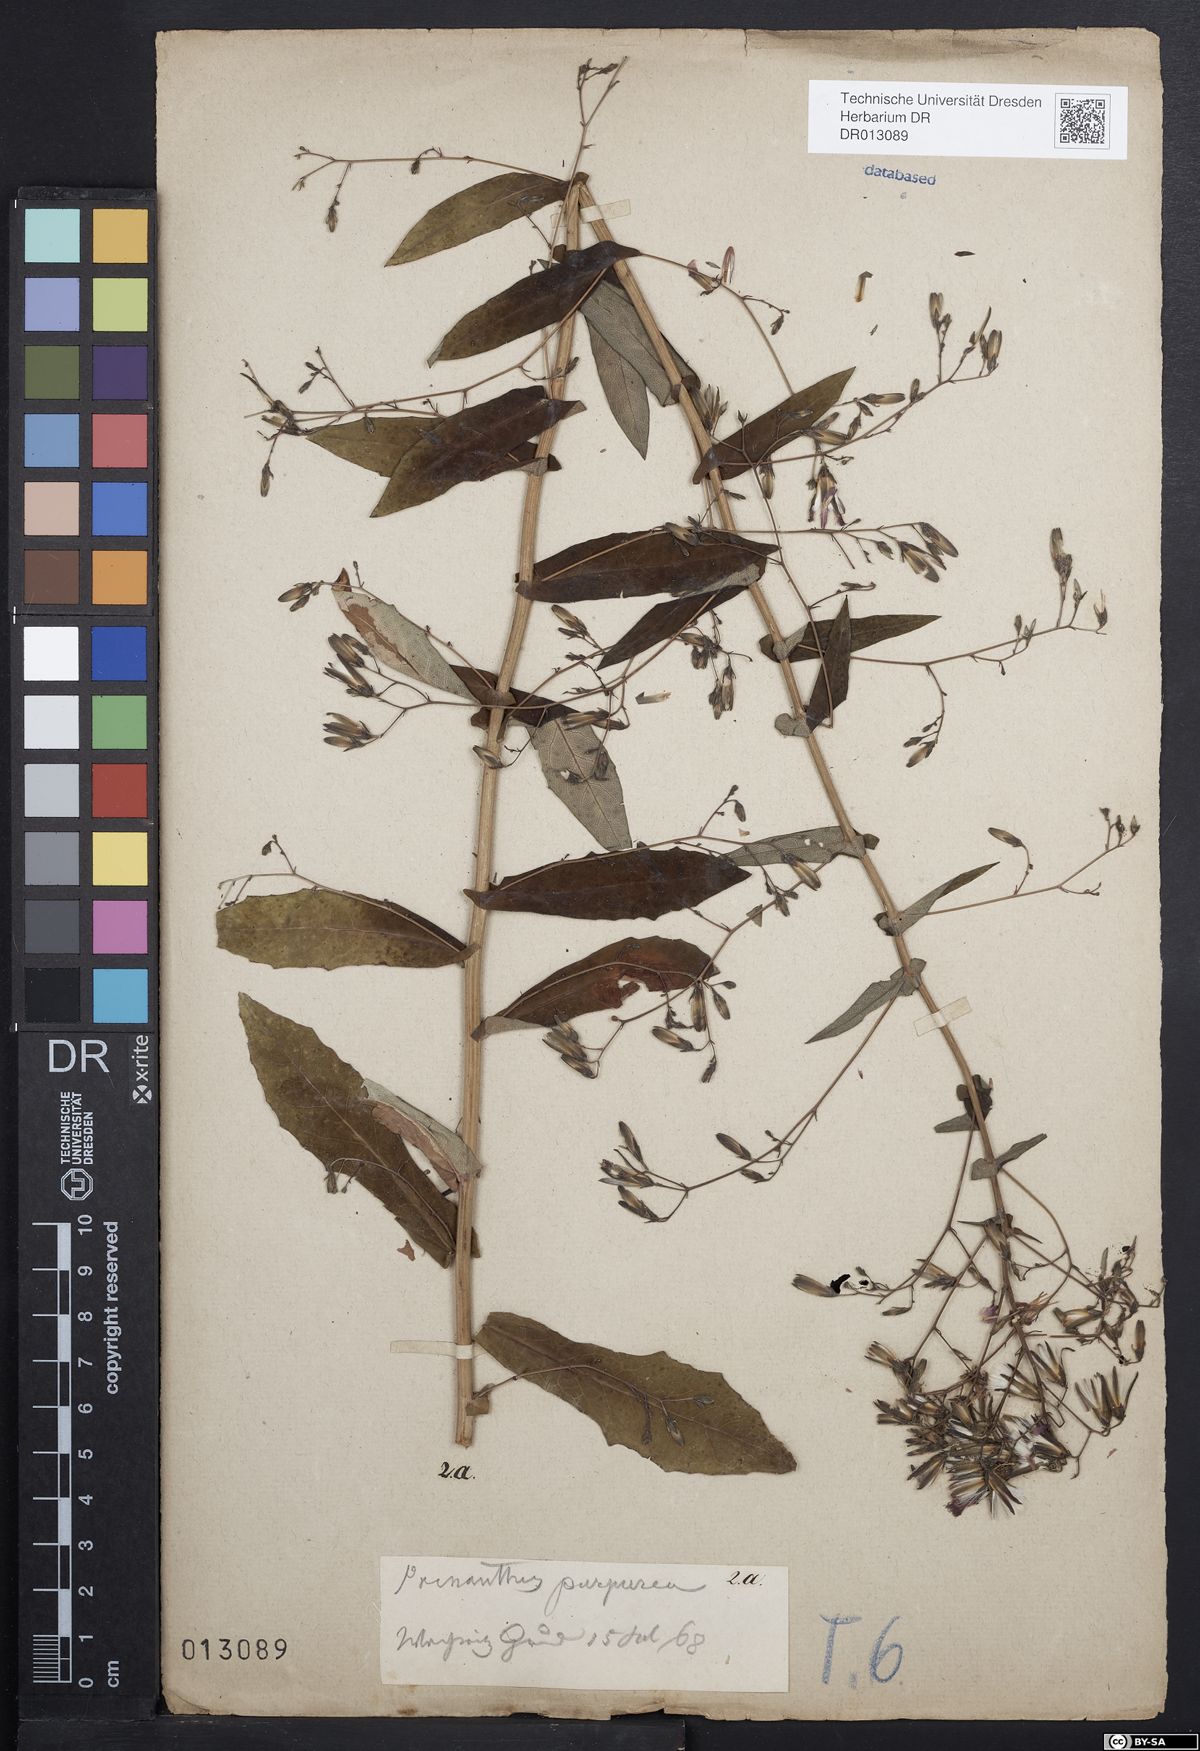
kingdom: Plantae
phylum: Tracheophyta
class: Magnoliopsida
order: Asterales
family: Asteraceae
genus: Prenanthes
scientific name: Prenanthes purpurea
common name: Purple lettuce
